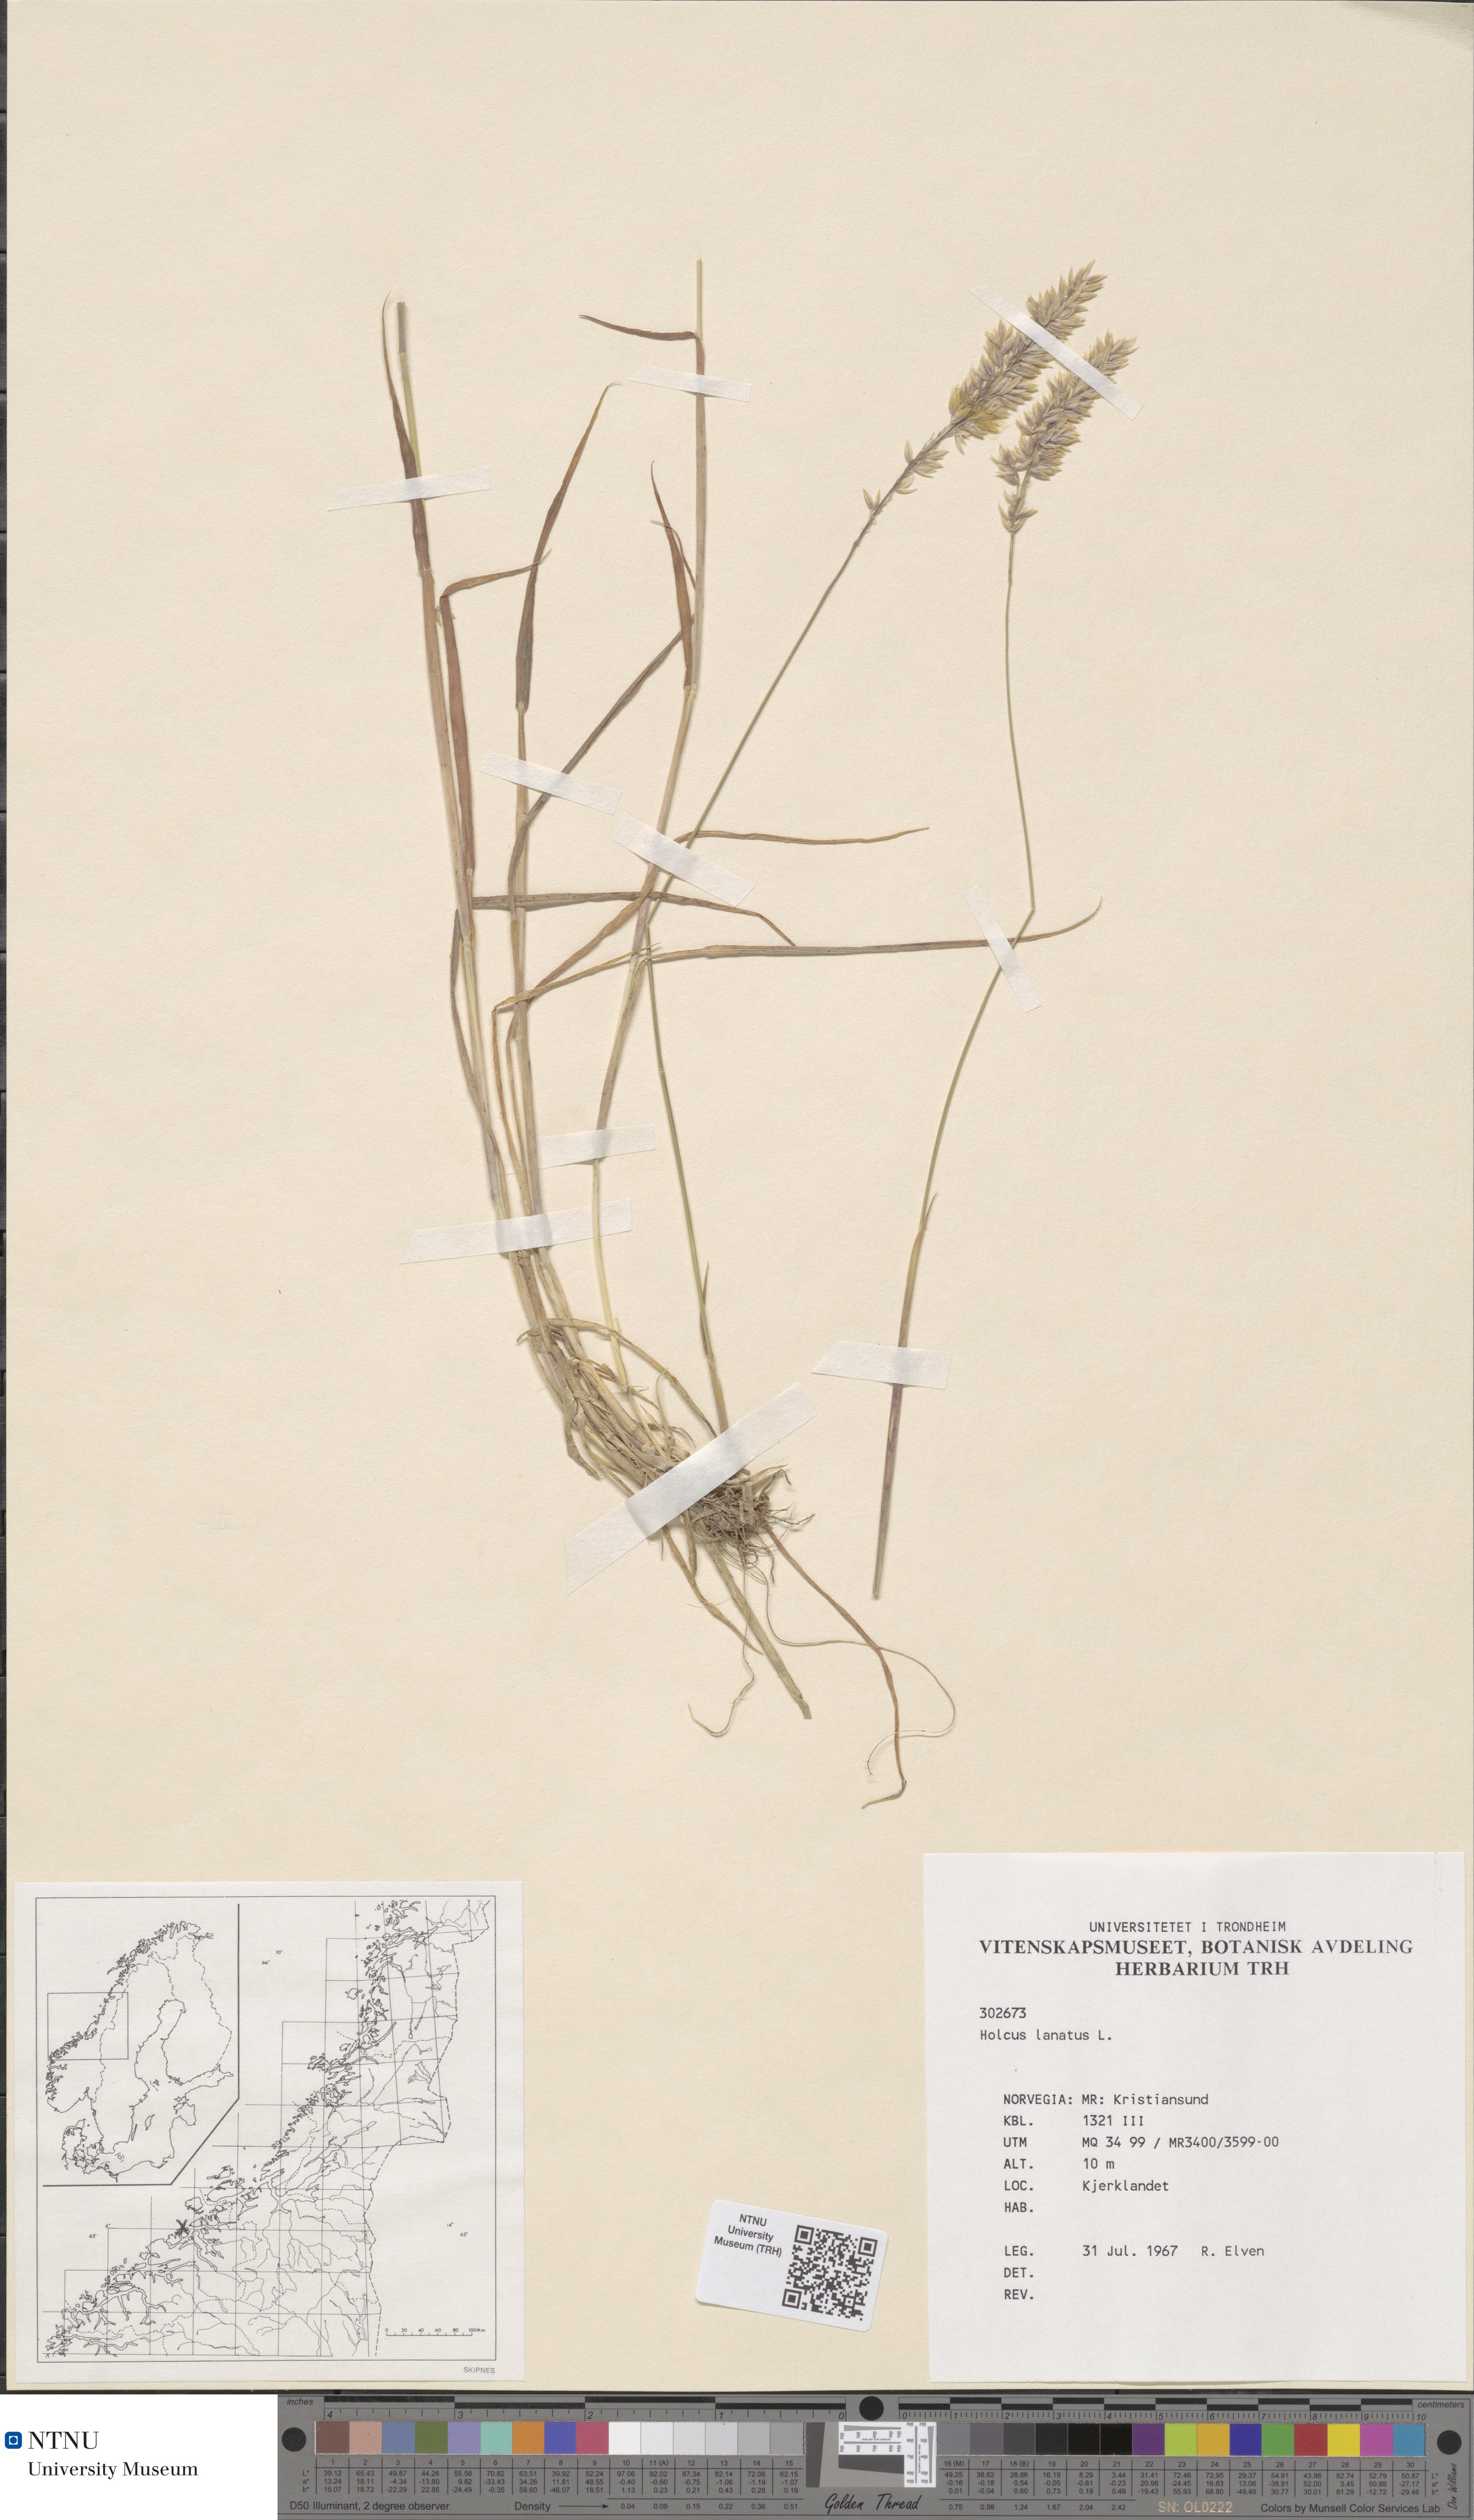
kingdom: Plantae
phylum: Tracheophyta
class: Liliopsida
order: Poales
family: Poaceae
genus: Holcus
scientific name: Holcus lanatus
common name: Yorkshire-fog
